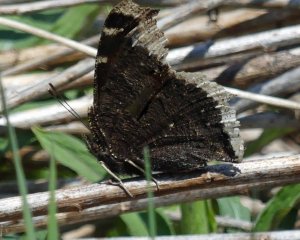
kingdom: Animalia
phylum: Arthropoda
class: Insecta
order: Lepidoptera
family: Nymphalidae
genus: Nymphalis
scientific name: Nymphalis antiopa
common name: Mourning Cloak
